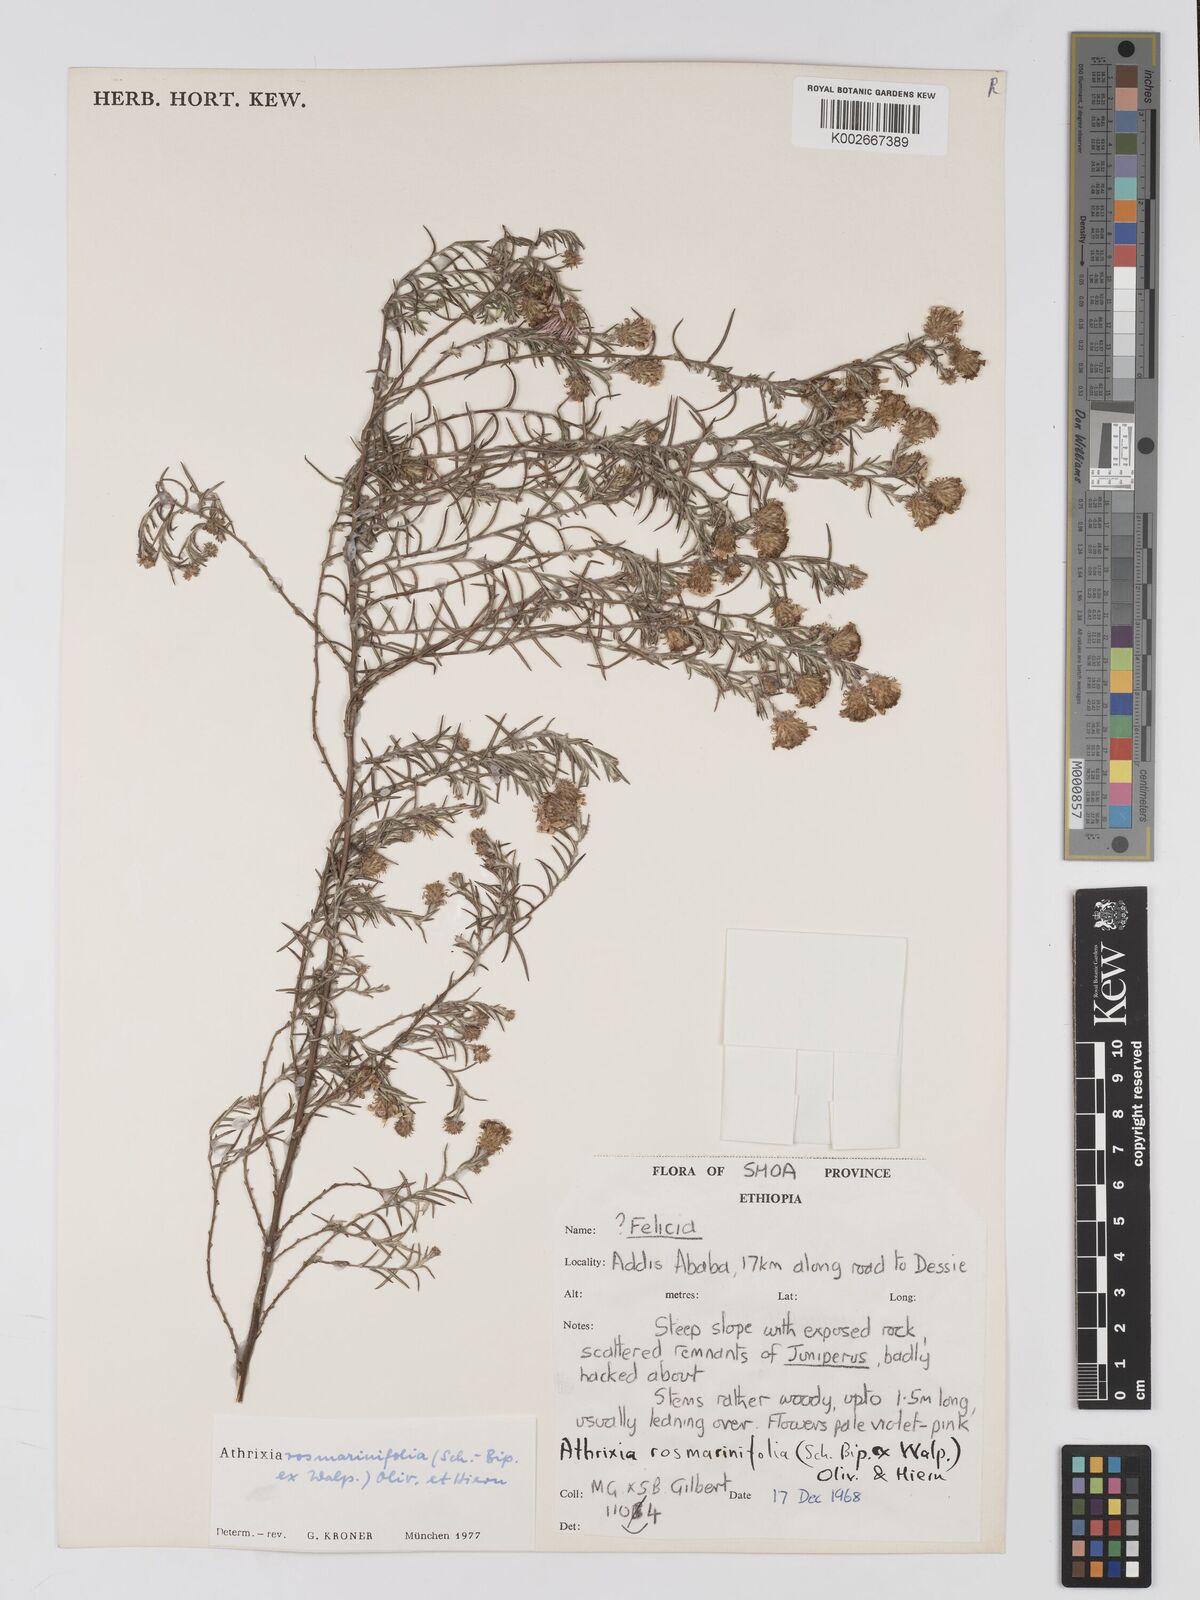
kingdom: Plantae
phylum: Tracheophyta
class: Magnoliopsida
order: Asterales
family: Asteraceae
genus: Athrixia
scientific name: Athrixia rosmarinifolia
